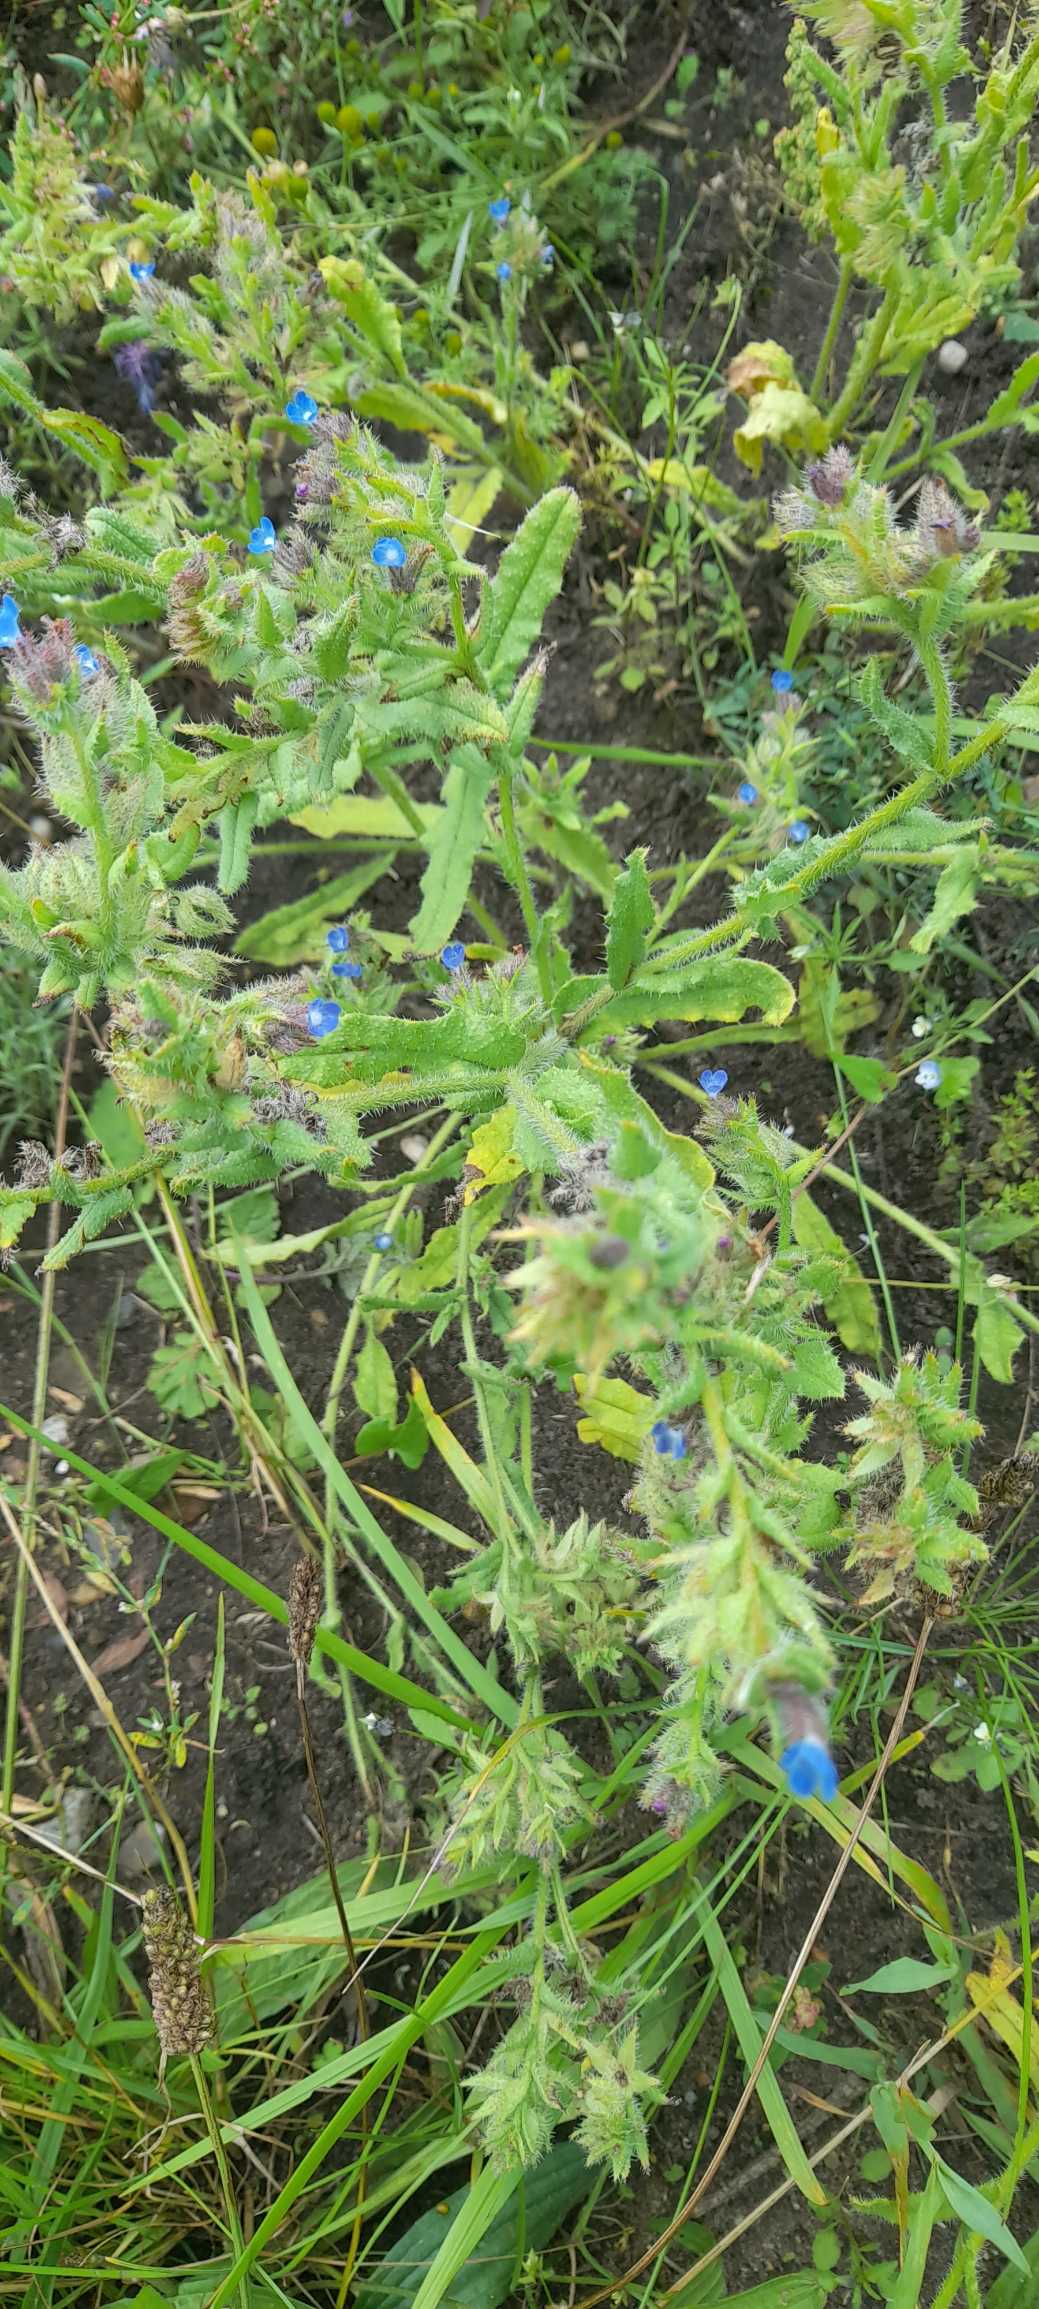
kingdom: Plantae
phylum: Tracheophyta
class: Magnoliopsida
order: Boraginales
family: Boraginaceae
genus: Lycopsis
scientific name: Lycopsis arvensis
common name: Krumhals
